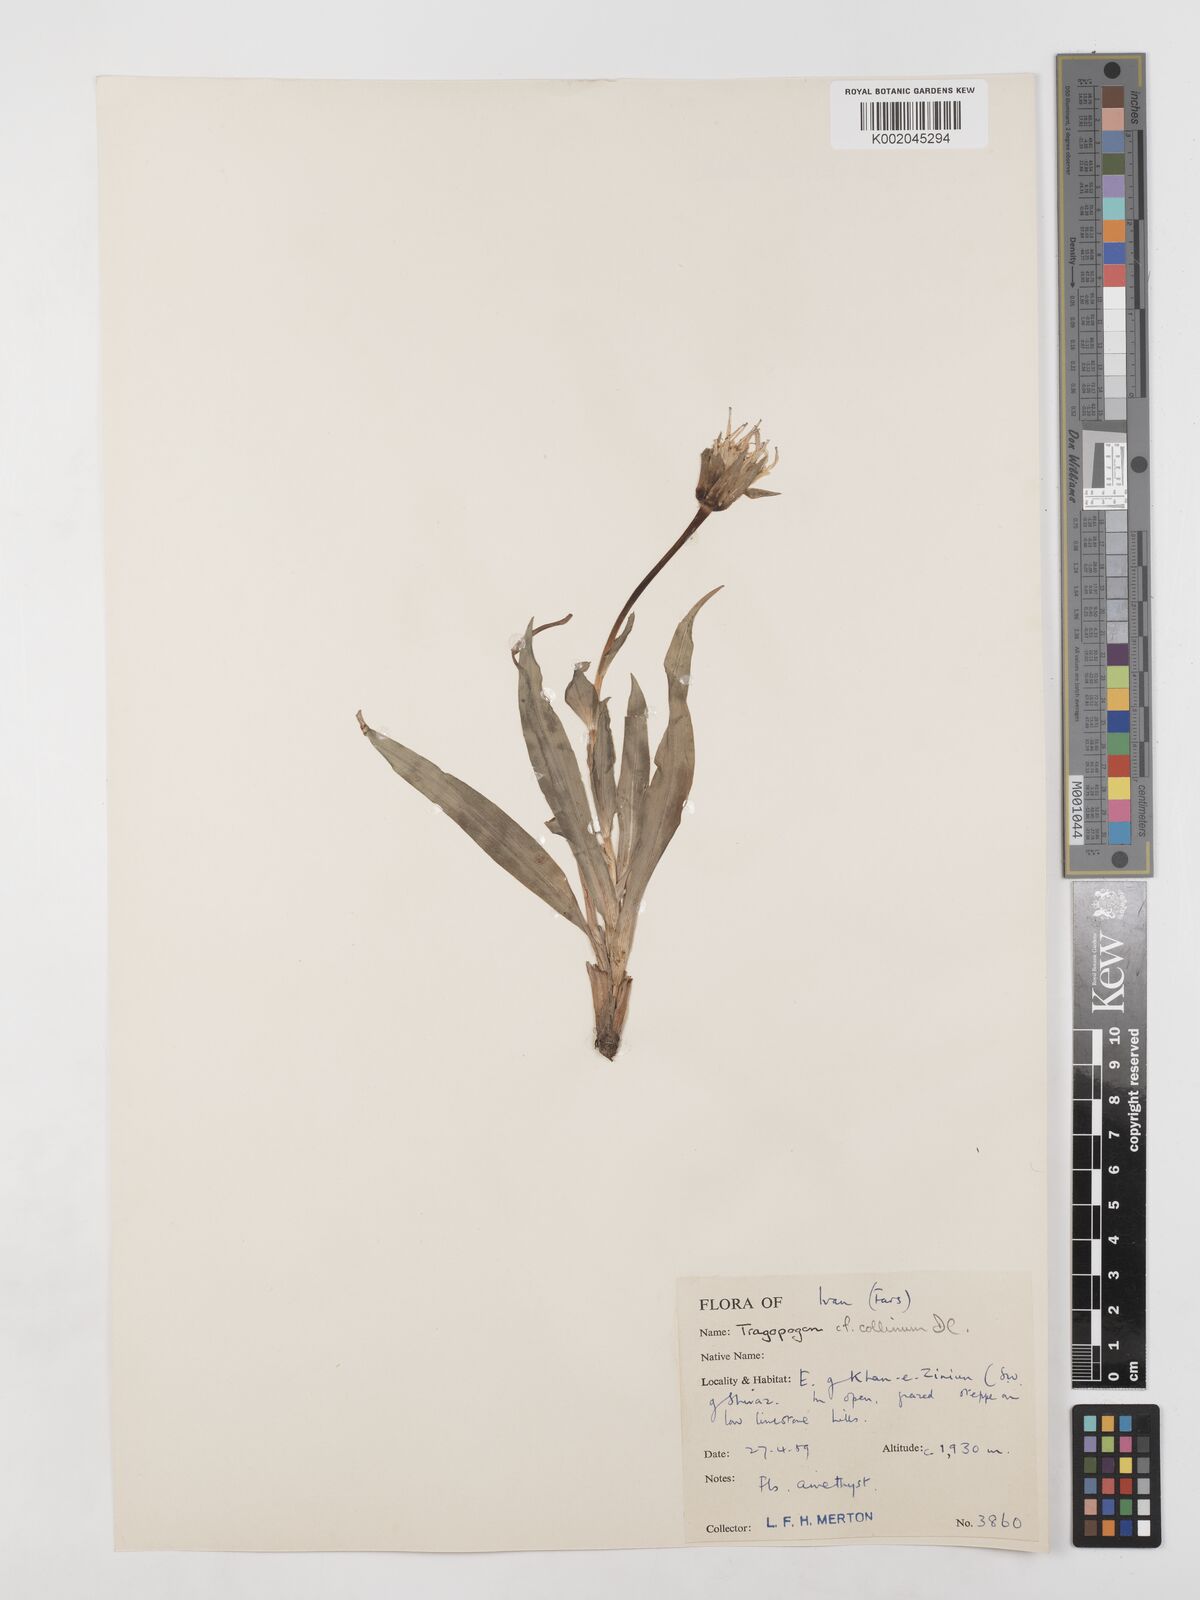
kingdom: Plantae
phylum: Tracheophyta
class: Magnoliopsida
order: Asterales
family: Asteraceae
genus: Tragopogon
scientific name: Tragopogon collinus
